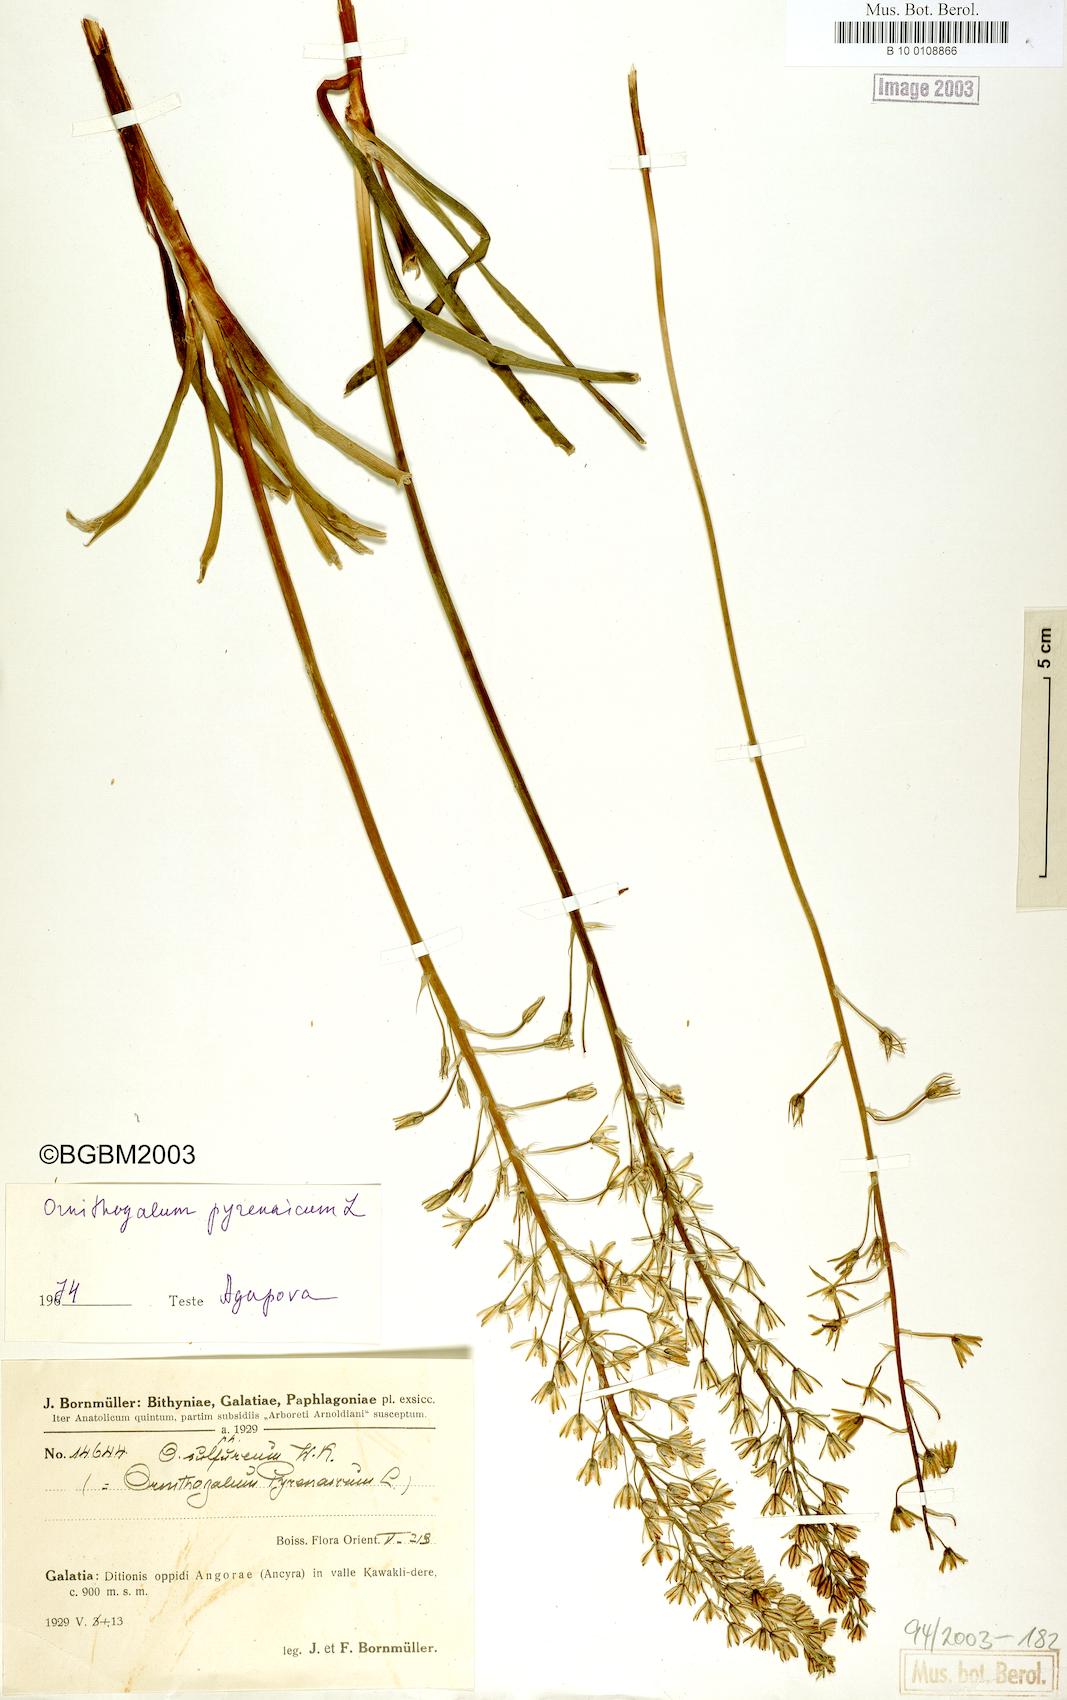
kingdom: Plantae
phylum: Tracheophyta
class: Liliopsida
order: Asparagales
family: Asparagaceae
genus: Ornithogalum
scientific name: Ornithogalum pyrenaicum
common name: Spiked star-of-bethlehem
